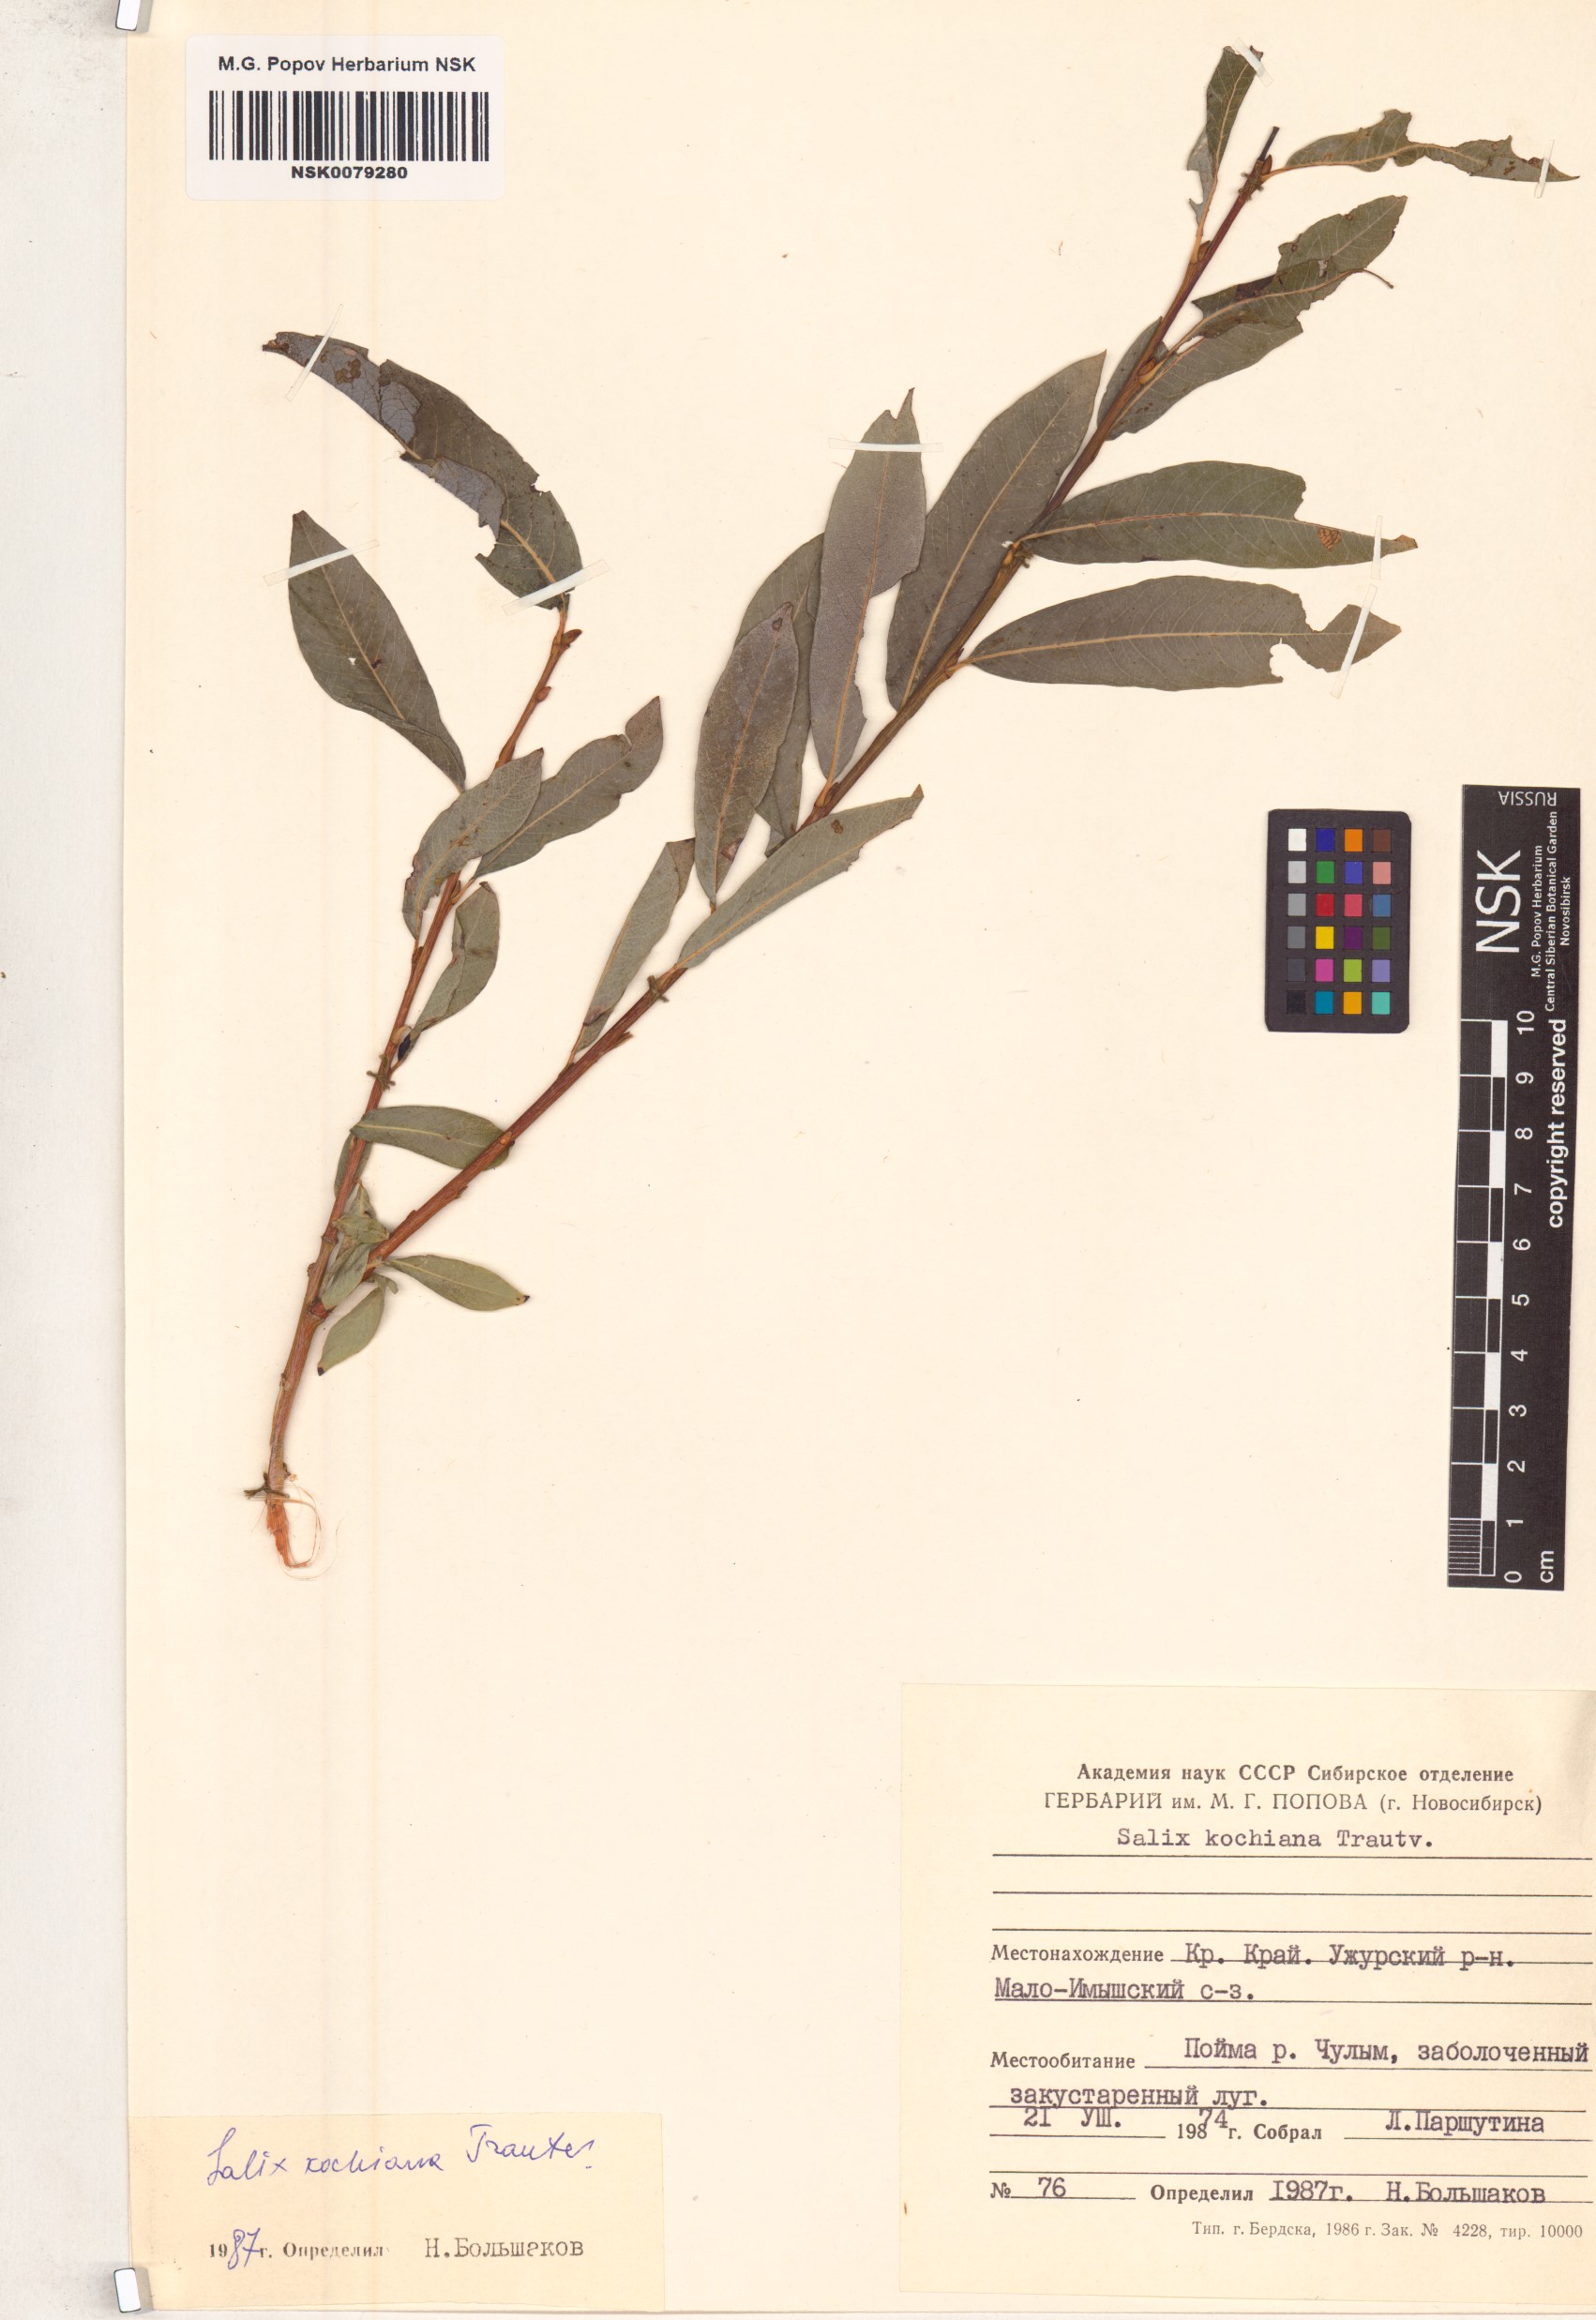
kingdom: Plantae
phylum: Tracheophyta
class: Magnoliopsida
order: Malpighiales
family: Salicaceae
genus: Salix
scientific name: Salix kochiana
